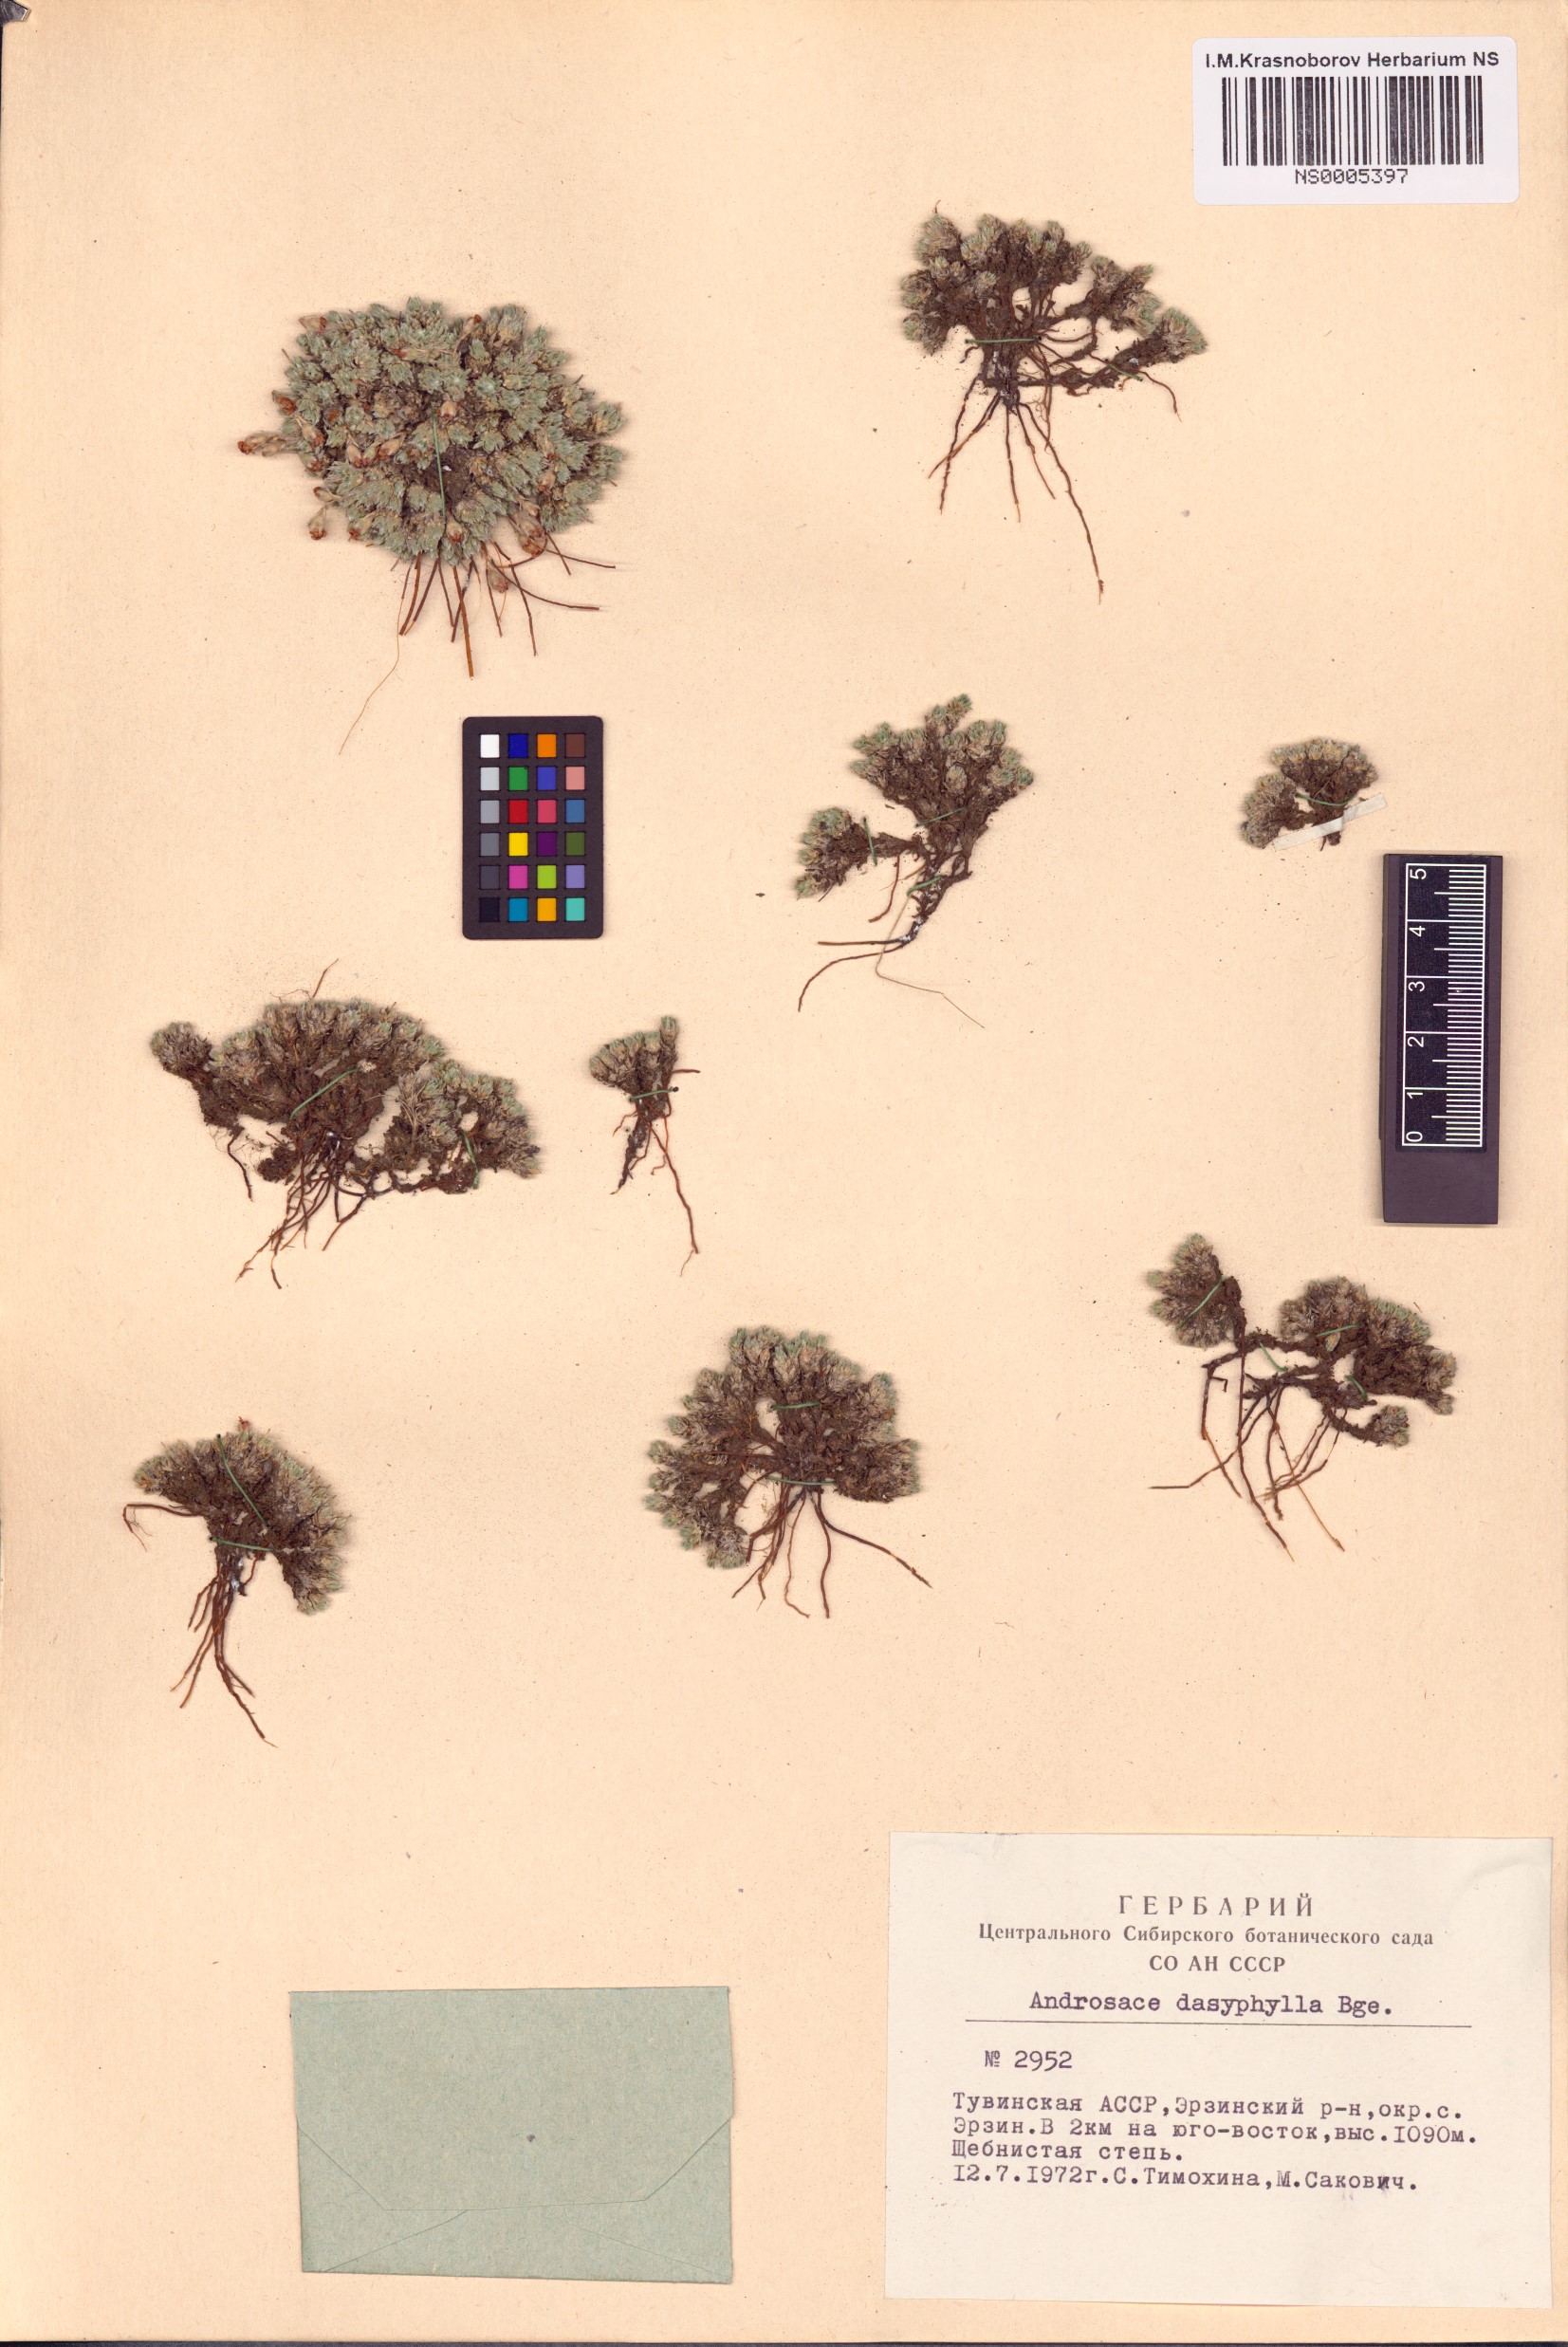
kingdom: Plantae
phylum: Tracheophyta
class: Magnoliopsida
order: Ericales
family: Primulaceae
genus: Androsace
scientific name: Androsace dasyphylla
